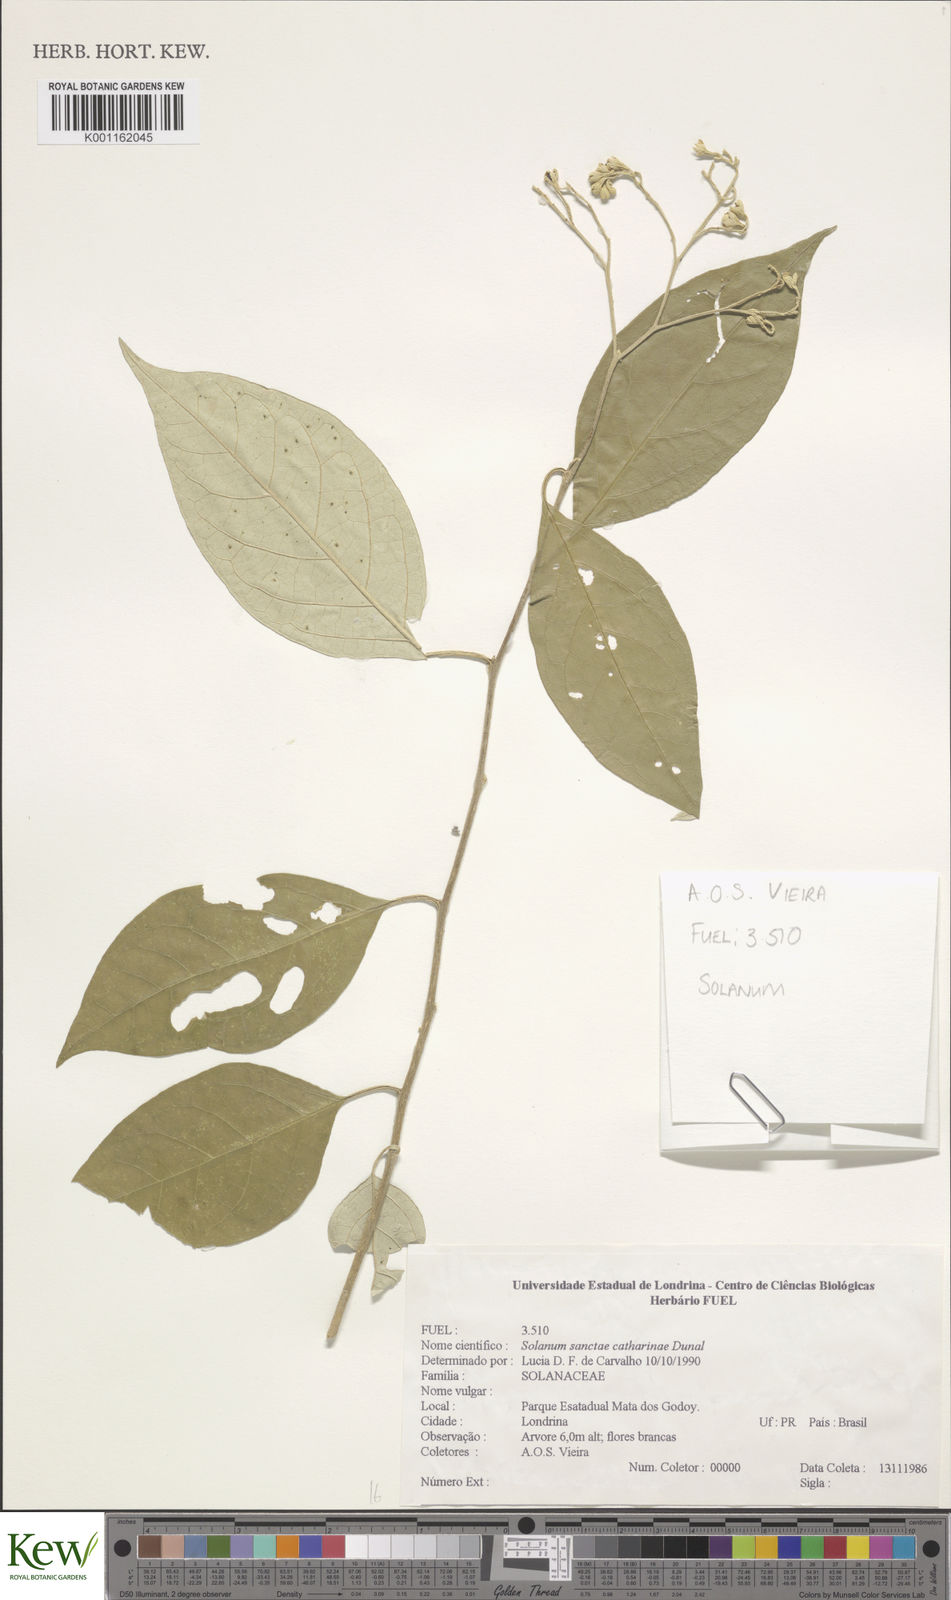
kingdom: Plantae
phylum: Tracheophyta
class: Magnoliopsida
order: Solanales
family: Solanaceae
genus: Solanum
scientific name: Solanum sanctae-catharinae
